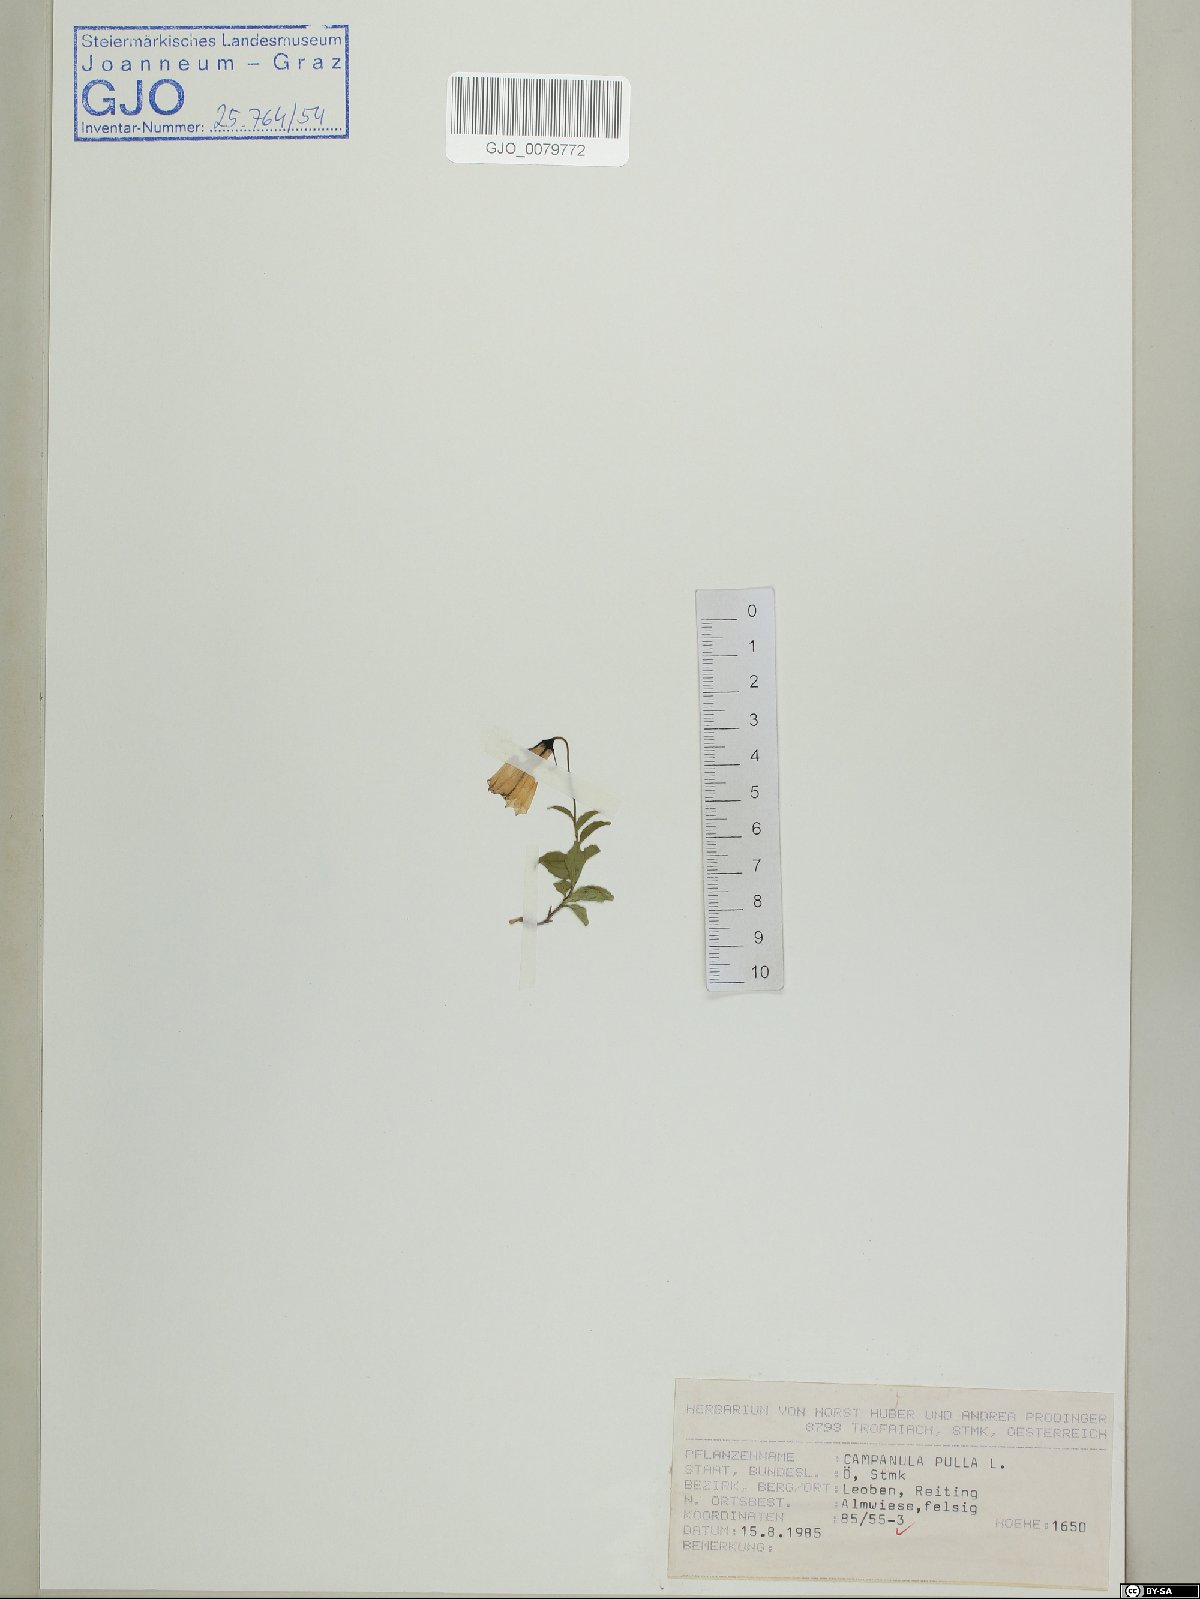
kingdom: Plantae
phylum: Tracheophyta
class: Magnoliopsida
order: Asterales
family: Campanulaceae
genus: Campanula
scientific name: Campanula pulla
